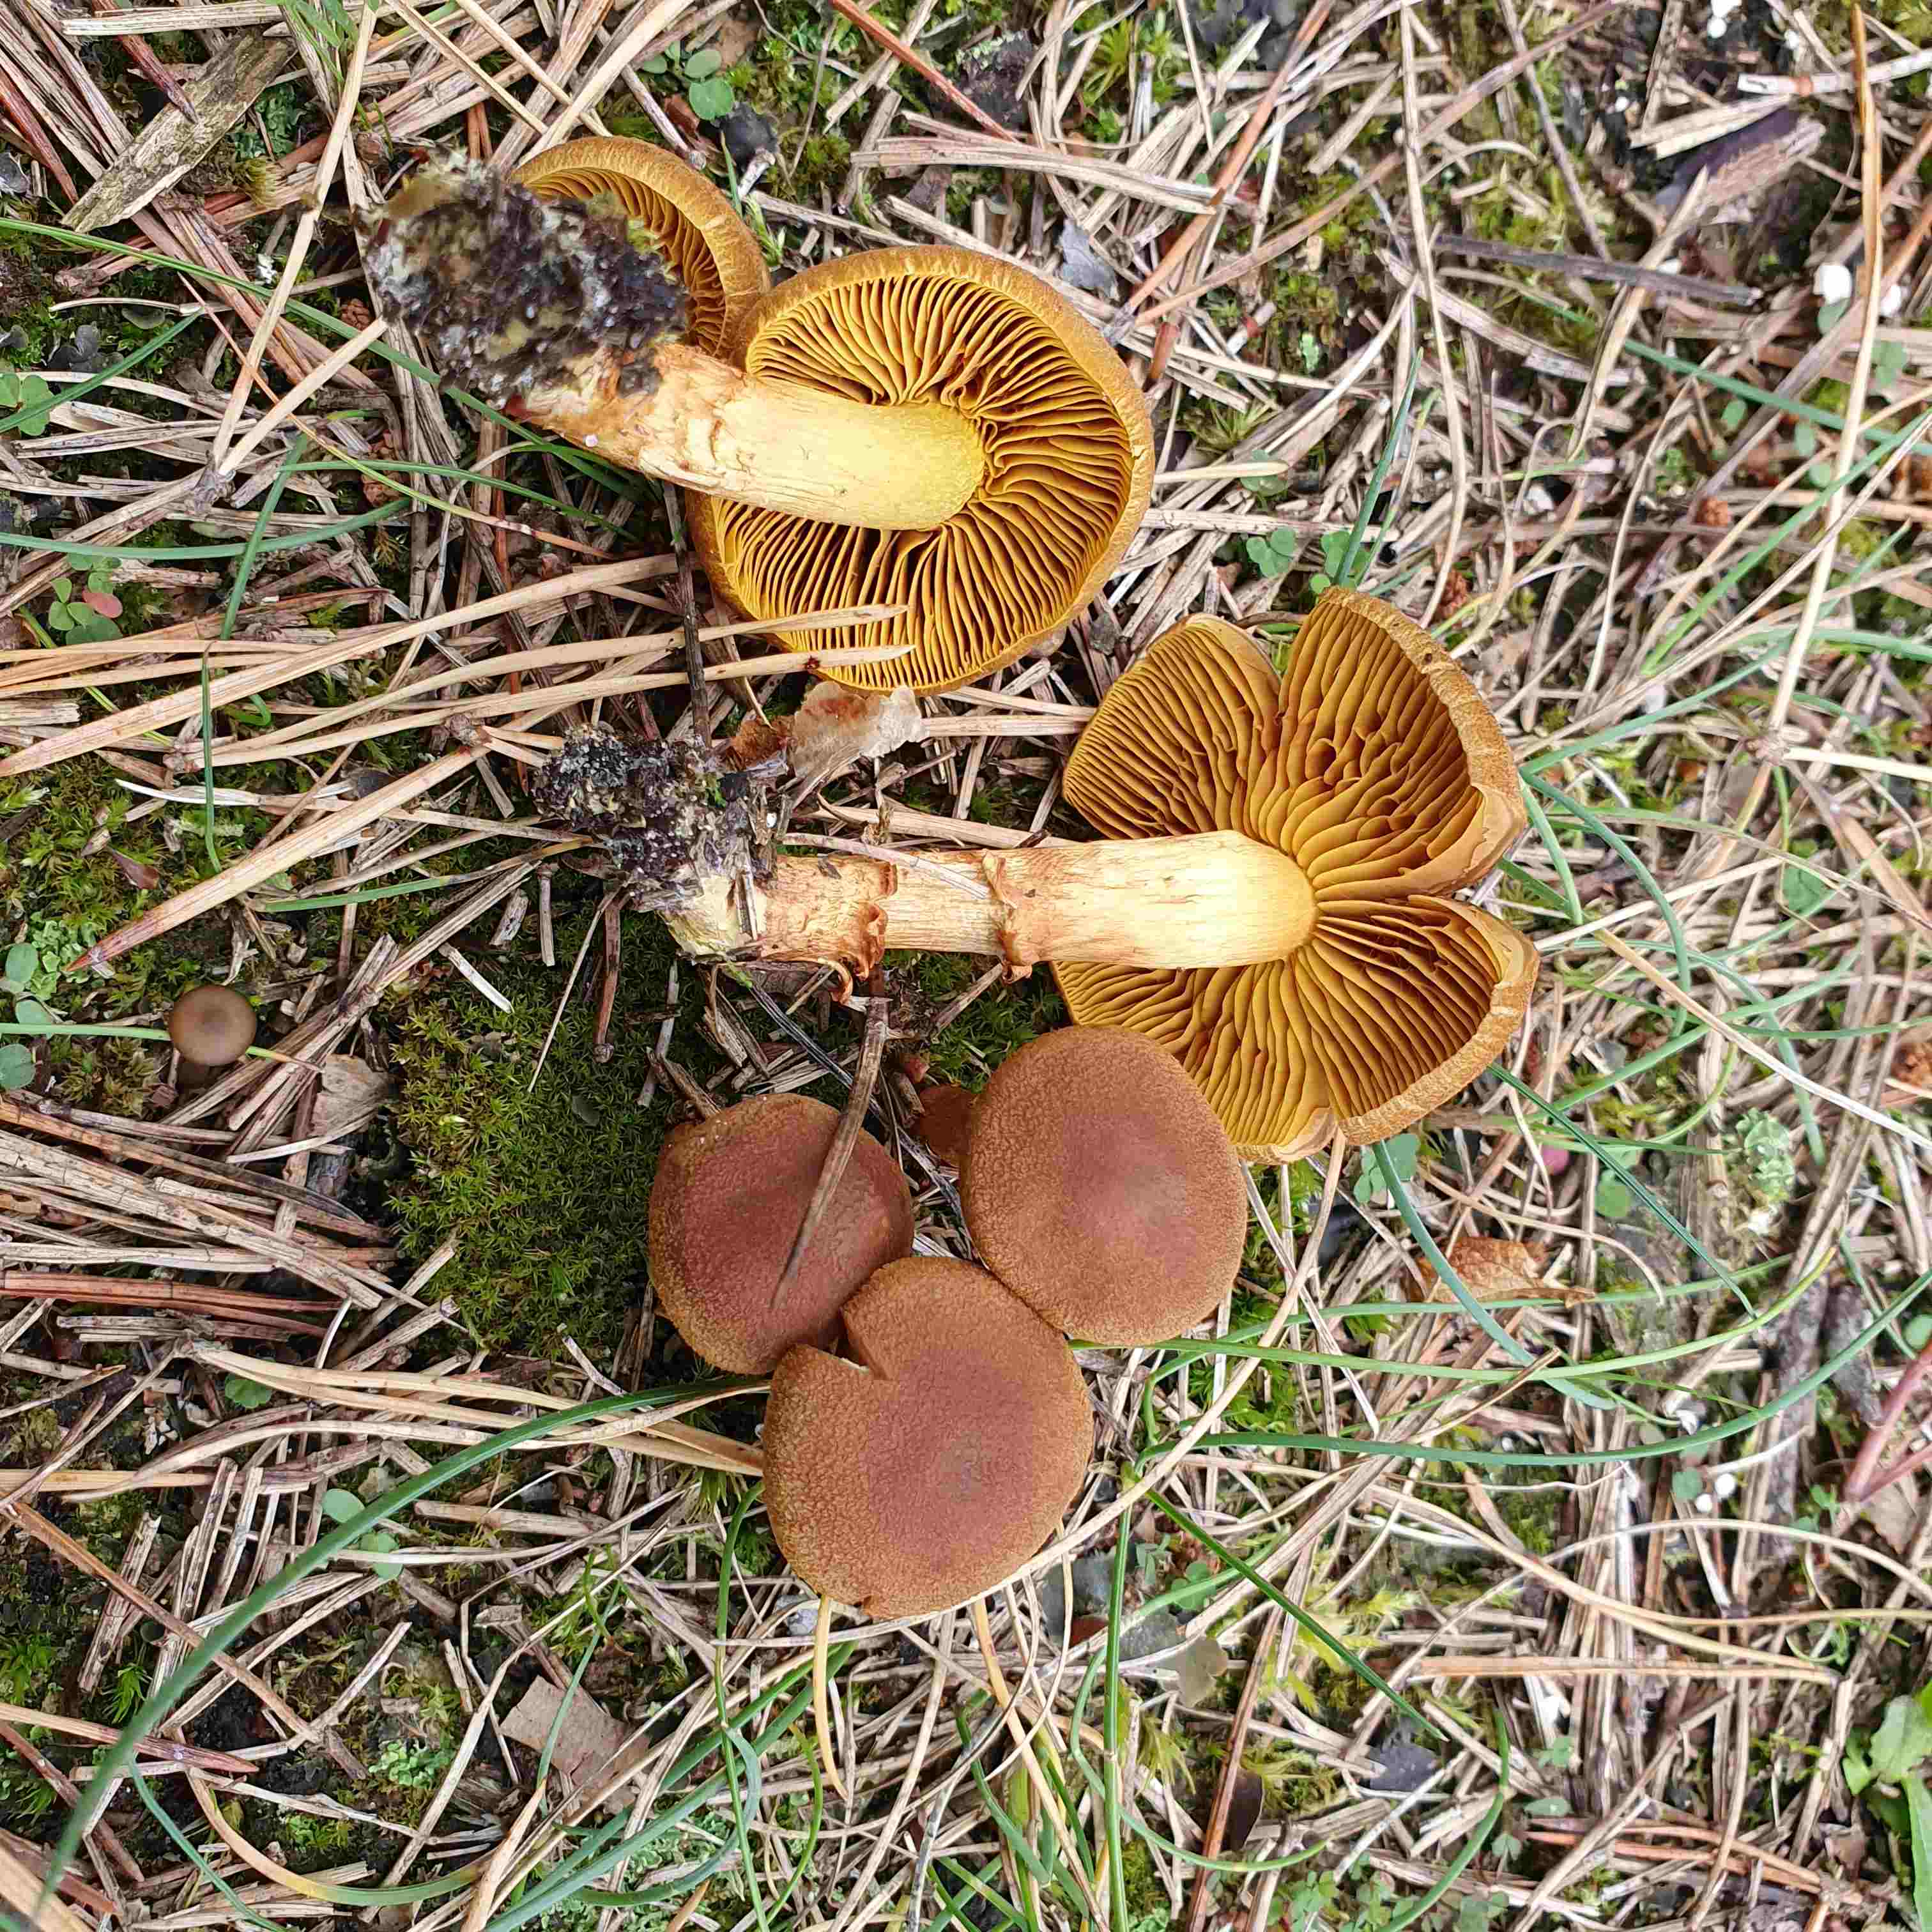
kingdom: Fungi
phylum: Basidiomycota
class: Agaricomycetes
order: Agaricales
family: Cortinariaceae
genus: Cortinarius
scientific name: Cortinarius
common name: gulbladet slørhat
